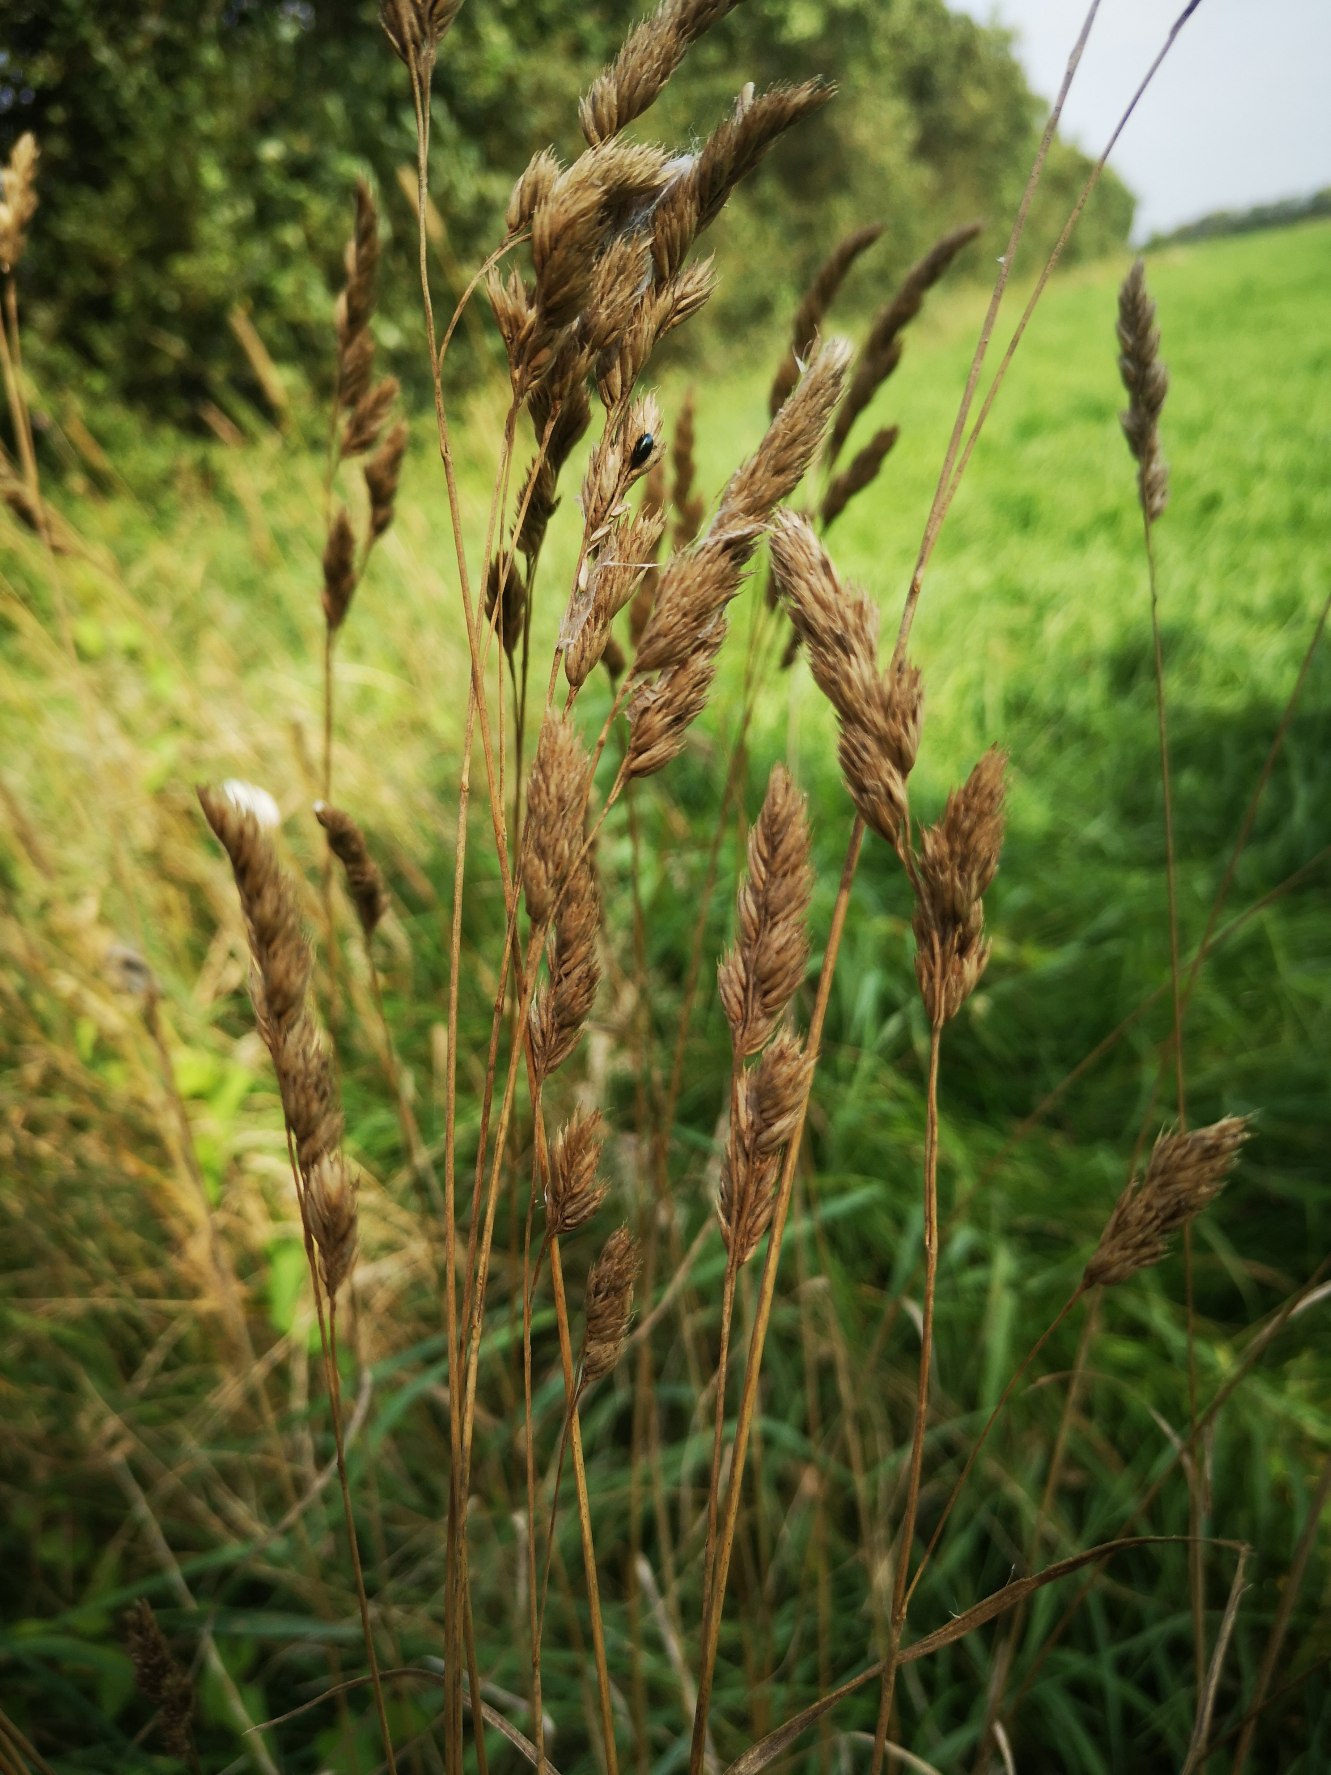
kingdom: Plantae
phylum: Tracheophyta
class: Liliopsida
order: Poales
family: Poaceae
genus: Dactylis
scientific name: Dactylis glomerata
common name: Almindelig hundegræs
